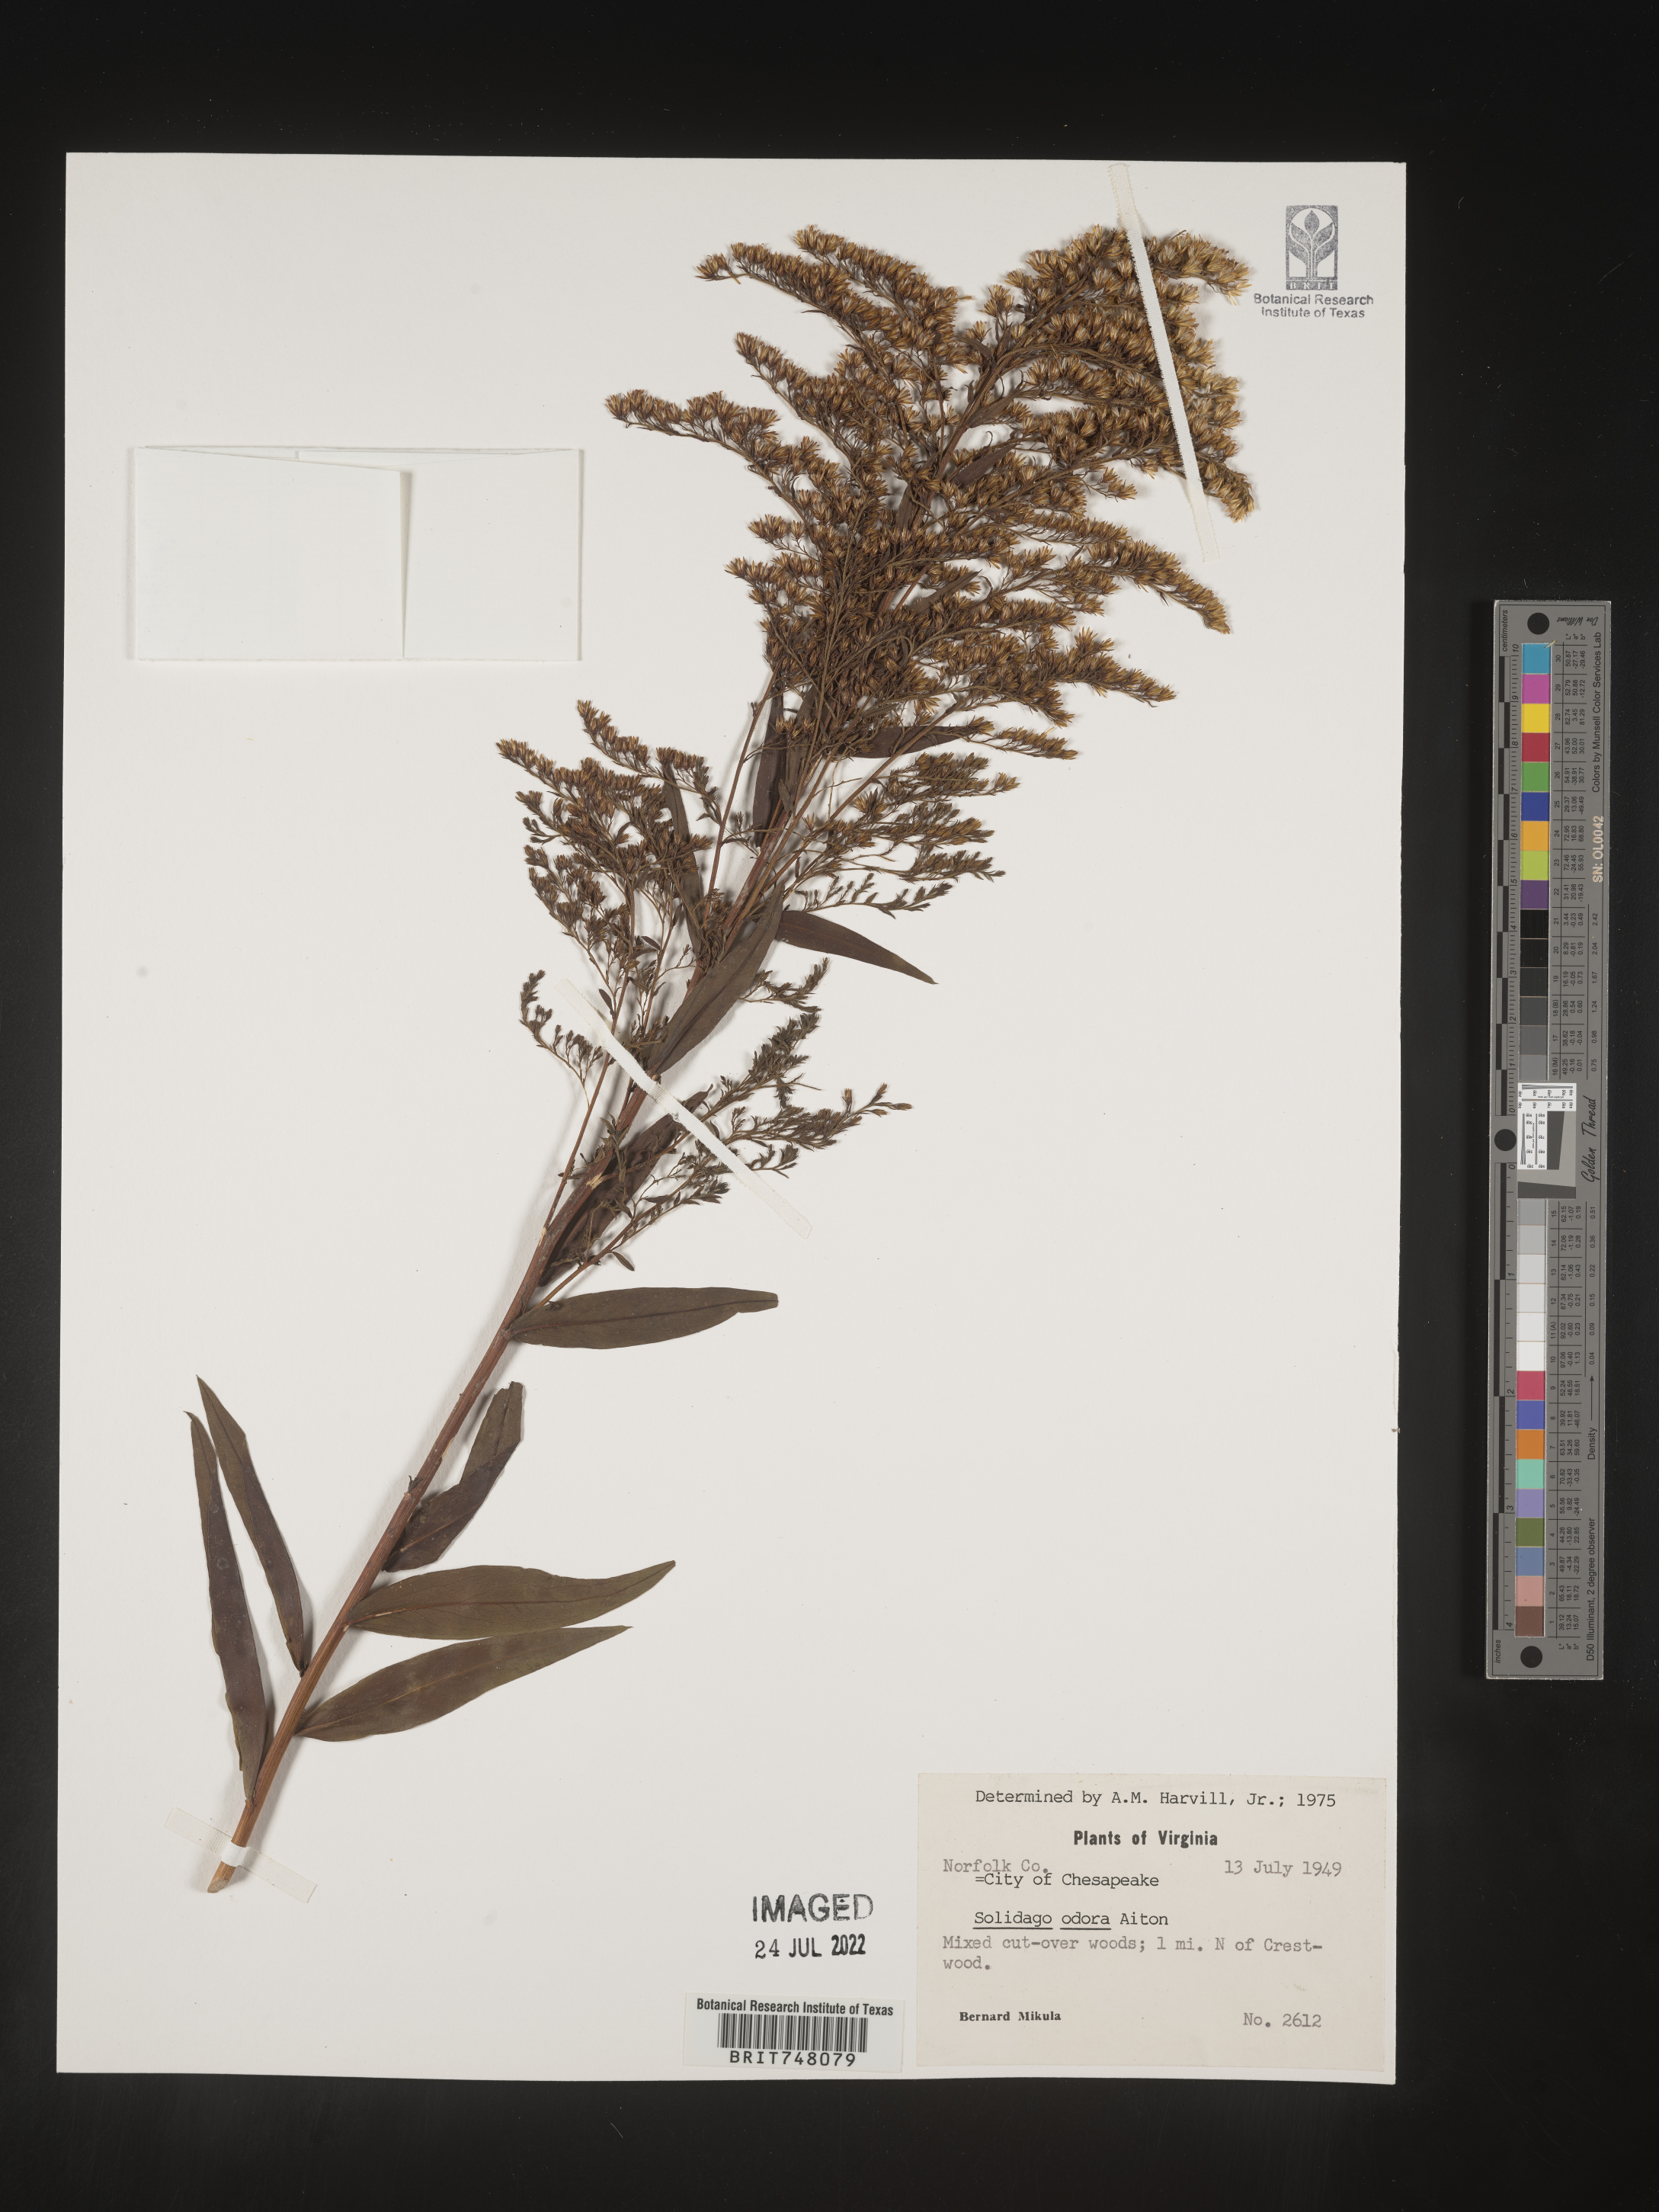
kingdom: Plantae
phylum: Tracheophyta
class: Magnoliopsida
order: Asterales
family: Asteraceae
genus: Solidago
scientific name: Solidago odora
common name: Anise-scented goldenrod
